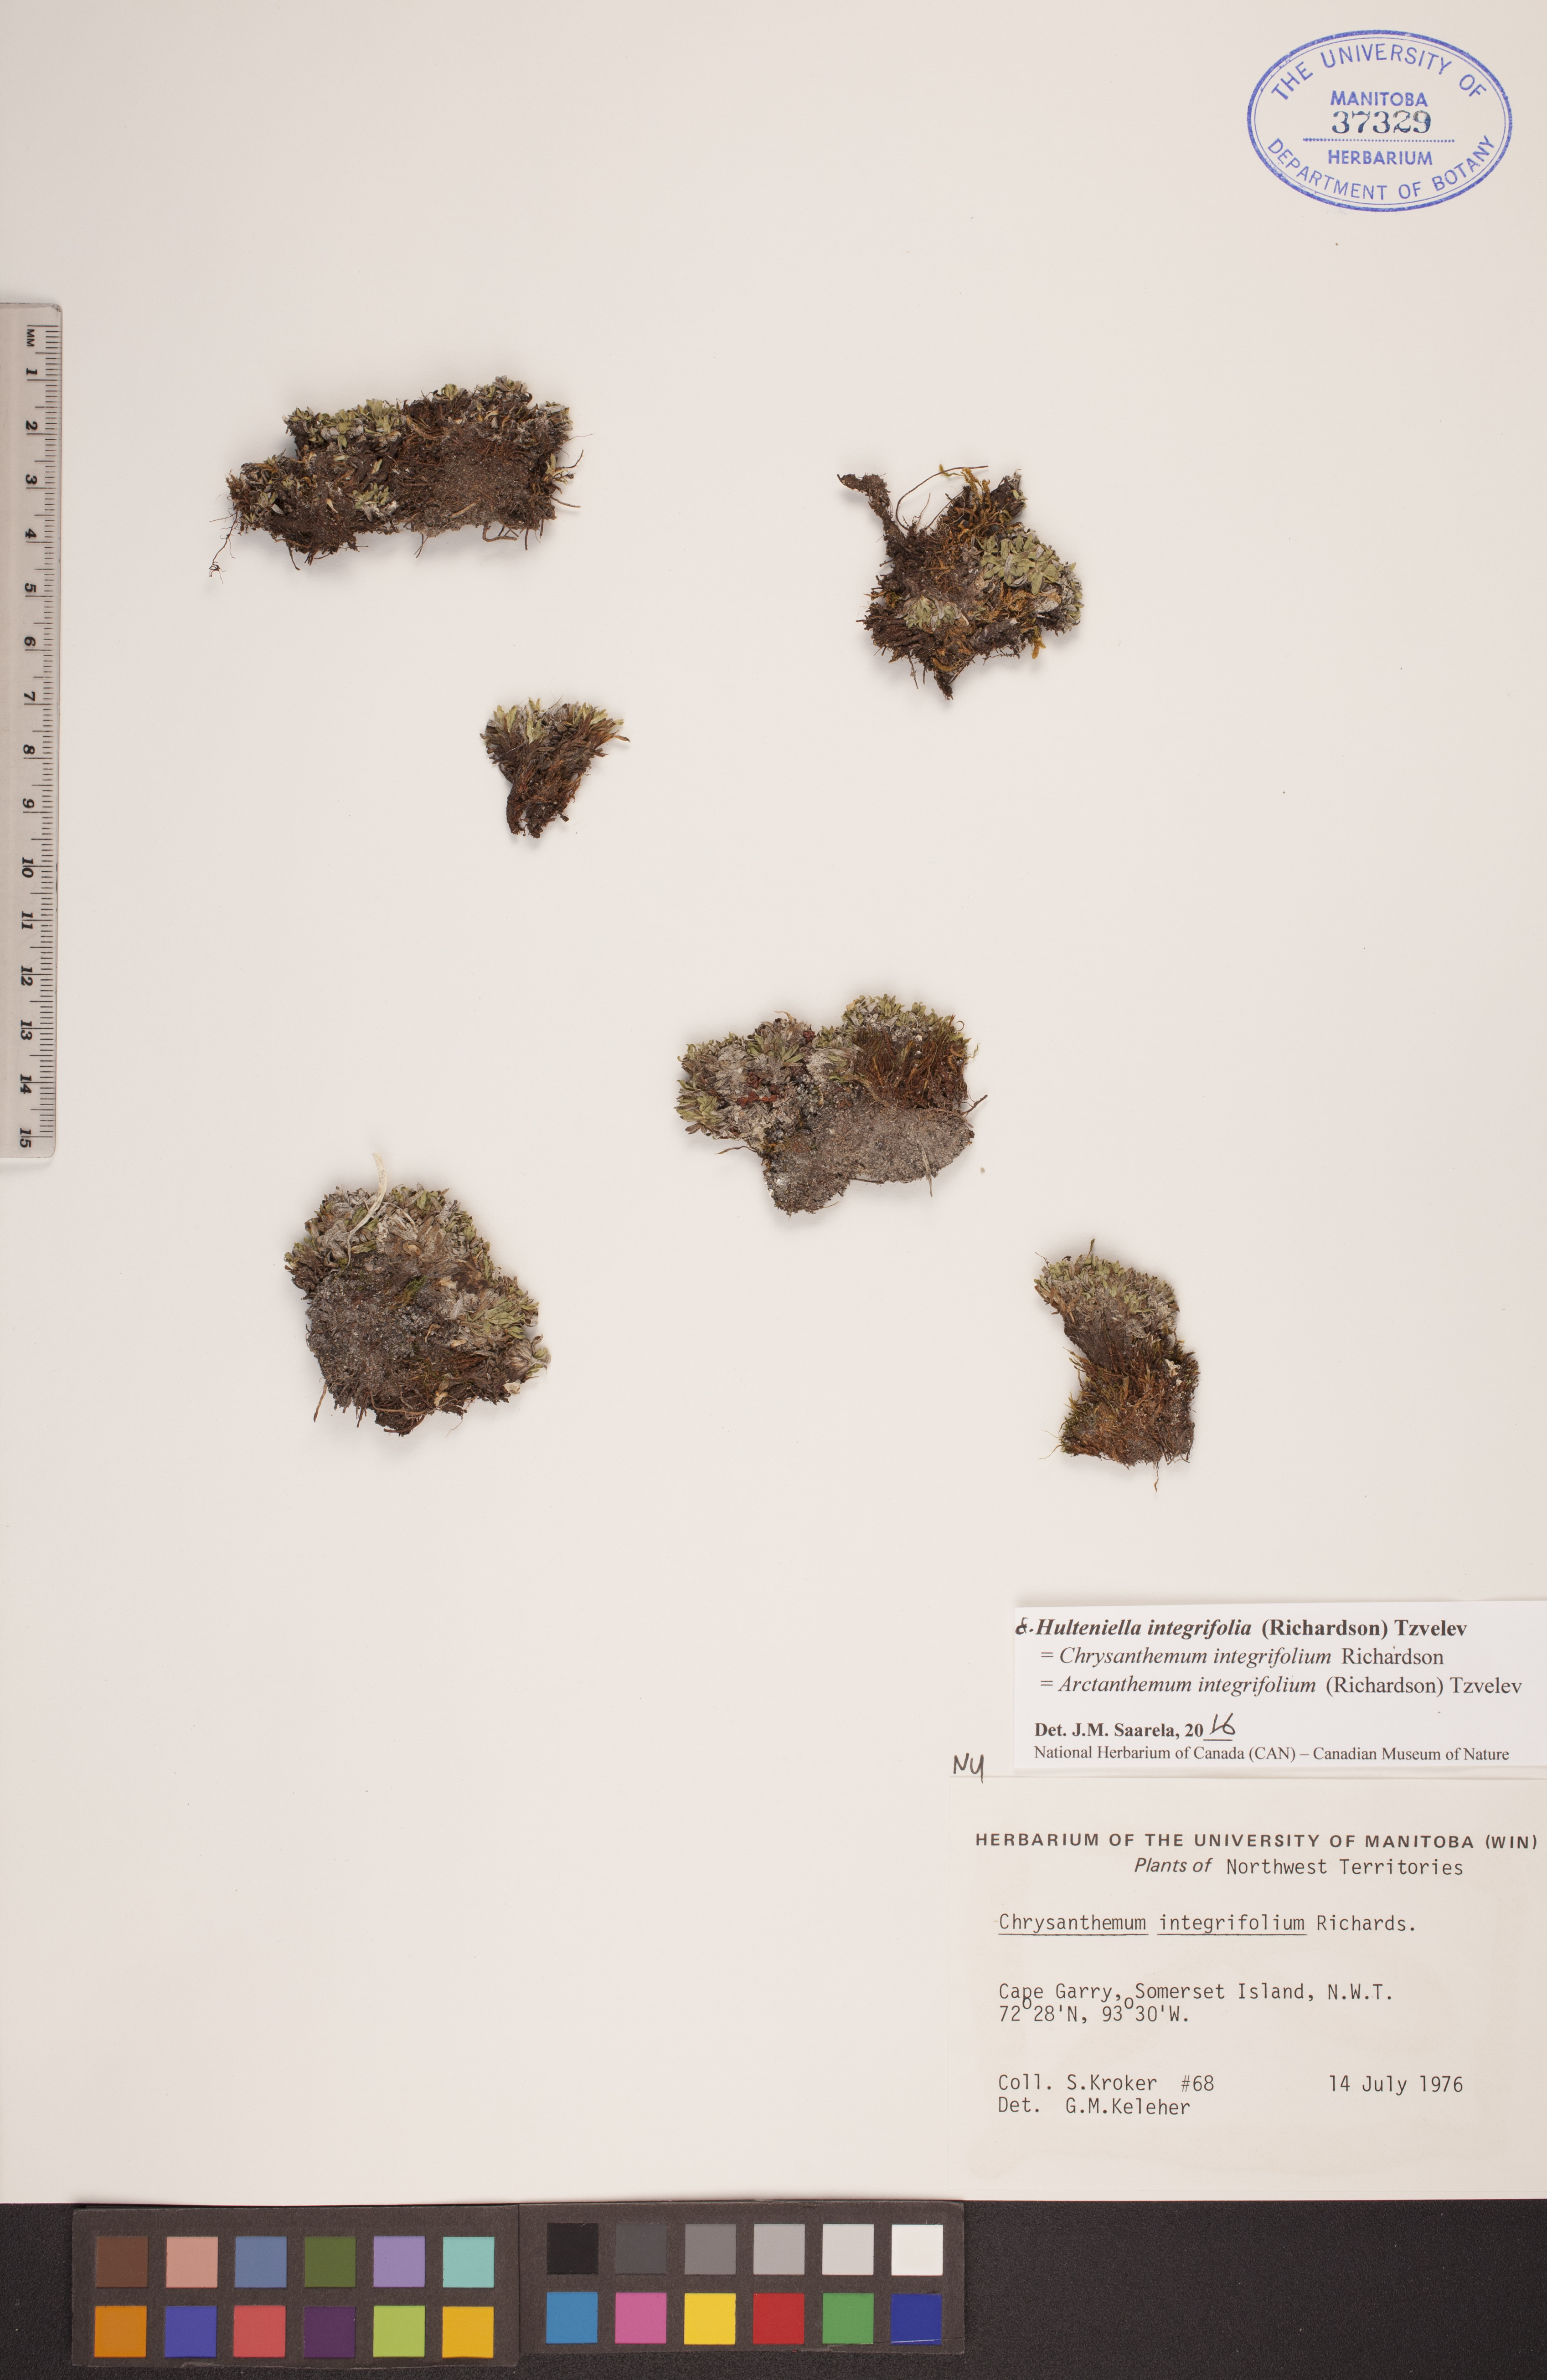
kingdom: Plantae
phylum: Tracheophyta
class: Magnoliopsida
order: Asterales
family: Asteraceae
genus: Arctanthemum
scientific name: Arctanthemum integrifolium
